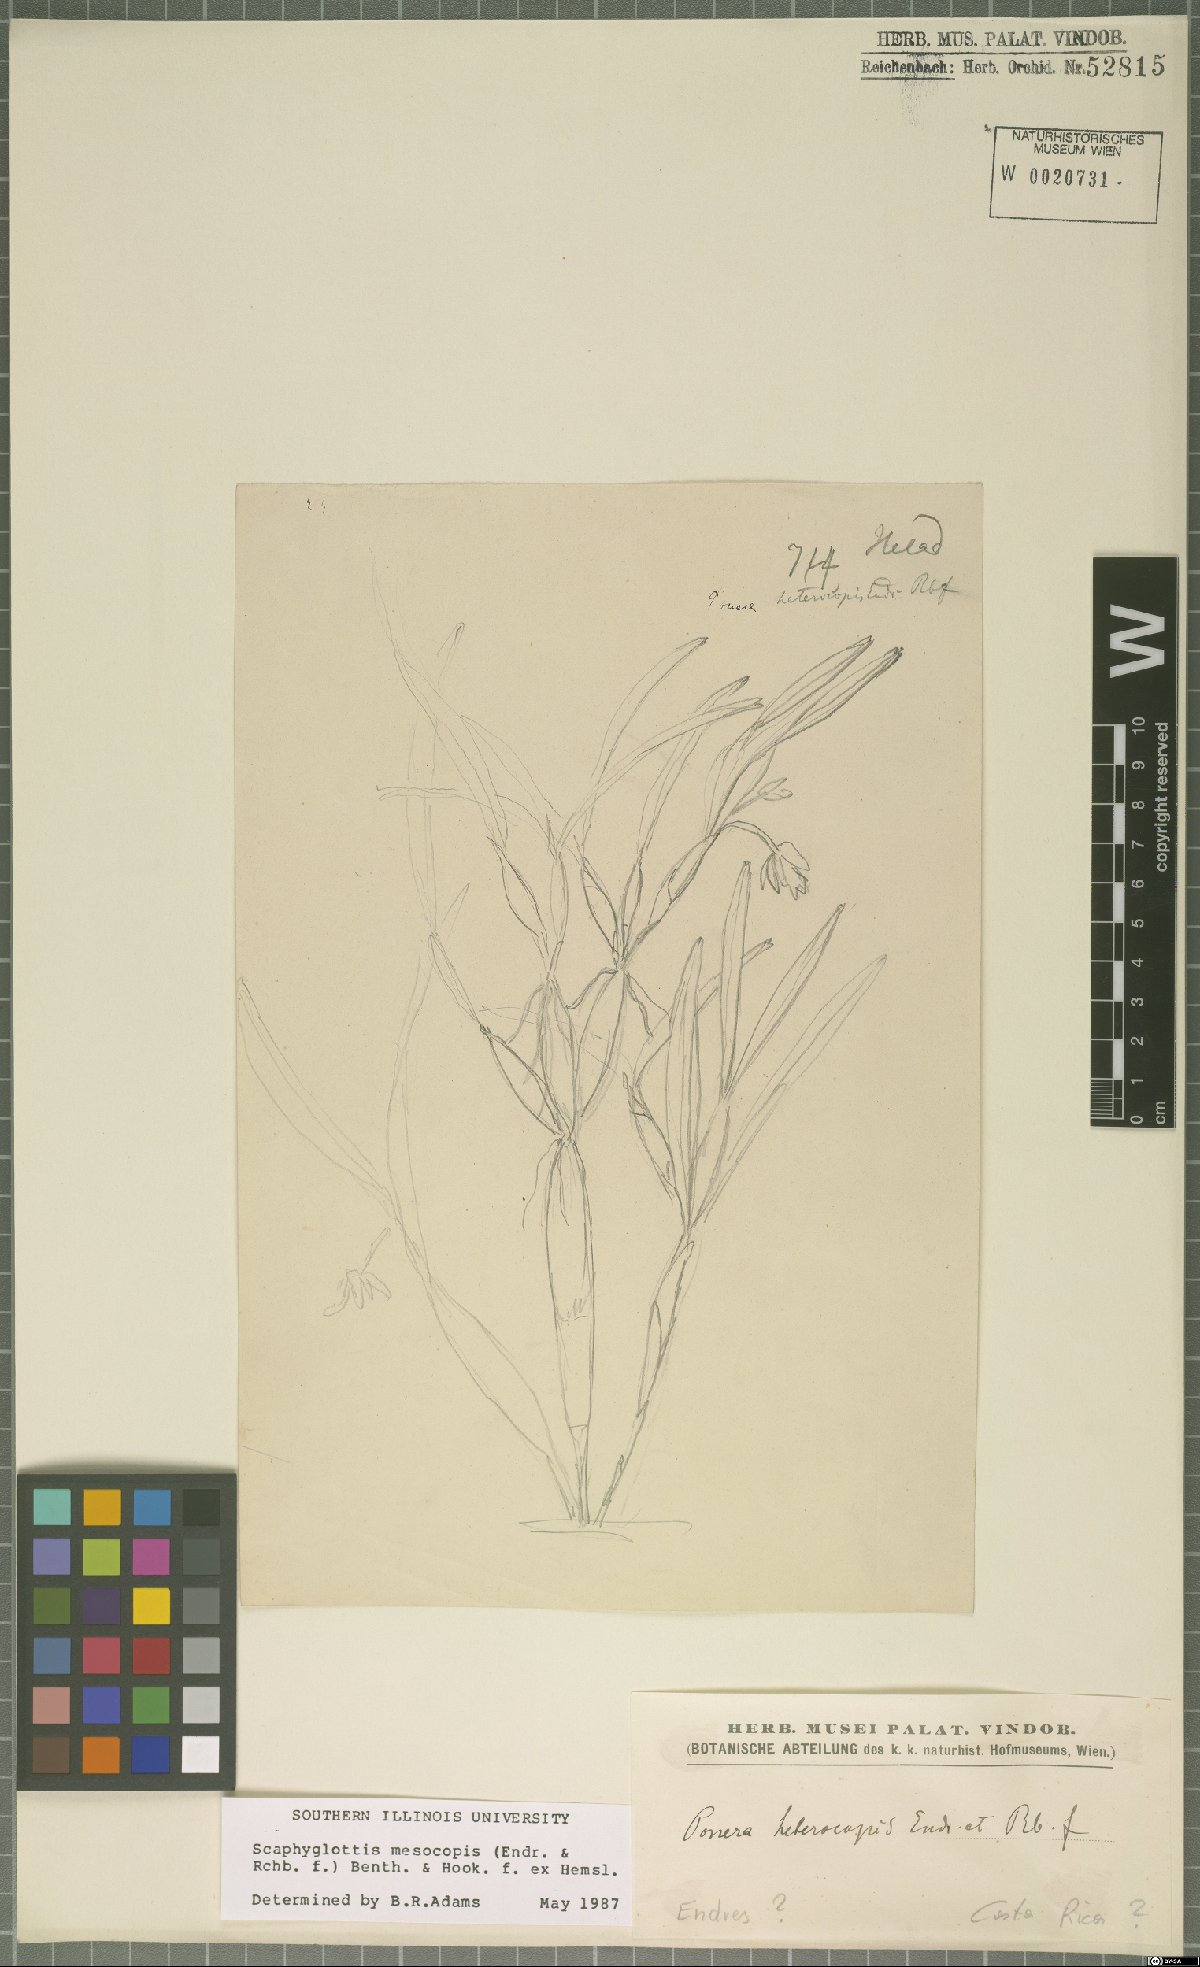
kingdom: Plantae
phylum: Tracheophyta
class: Liliopsida
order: Asparagales
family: Orchidaceae
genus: Scaphyglottis
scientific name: Scaphyglottis mesocopis
